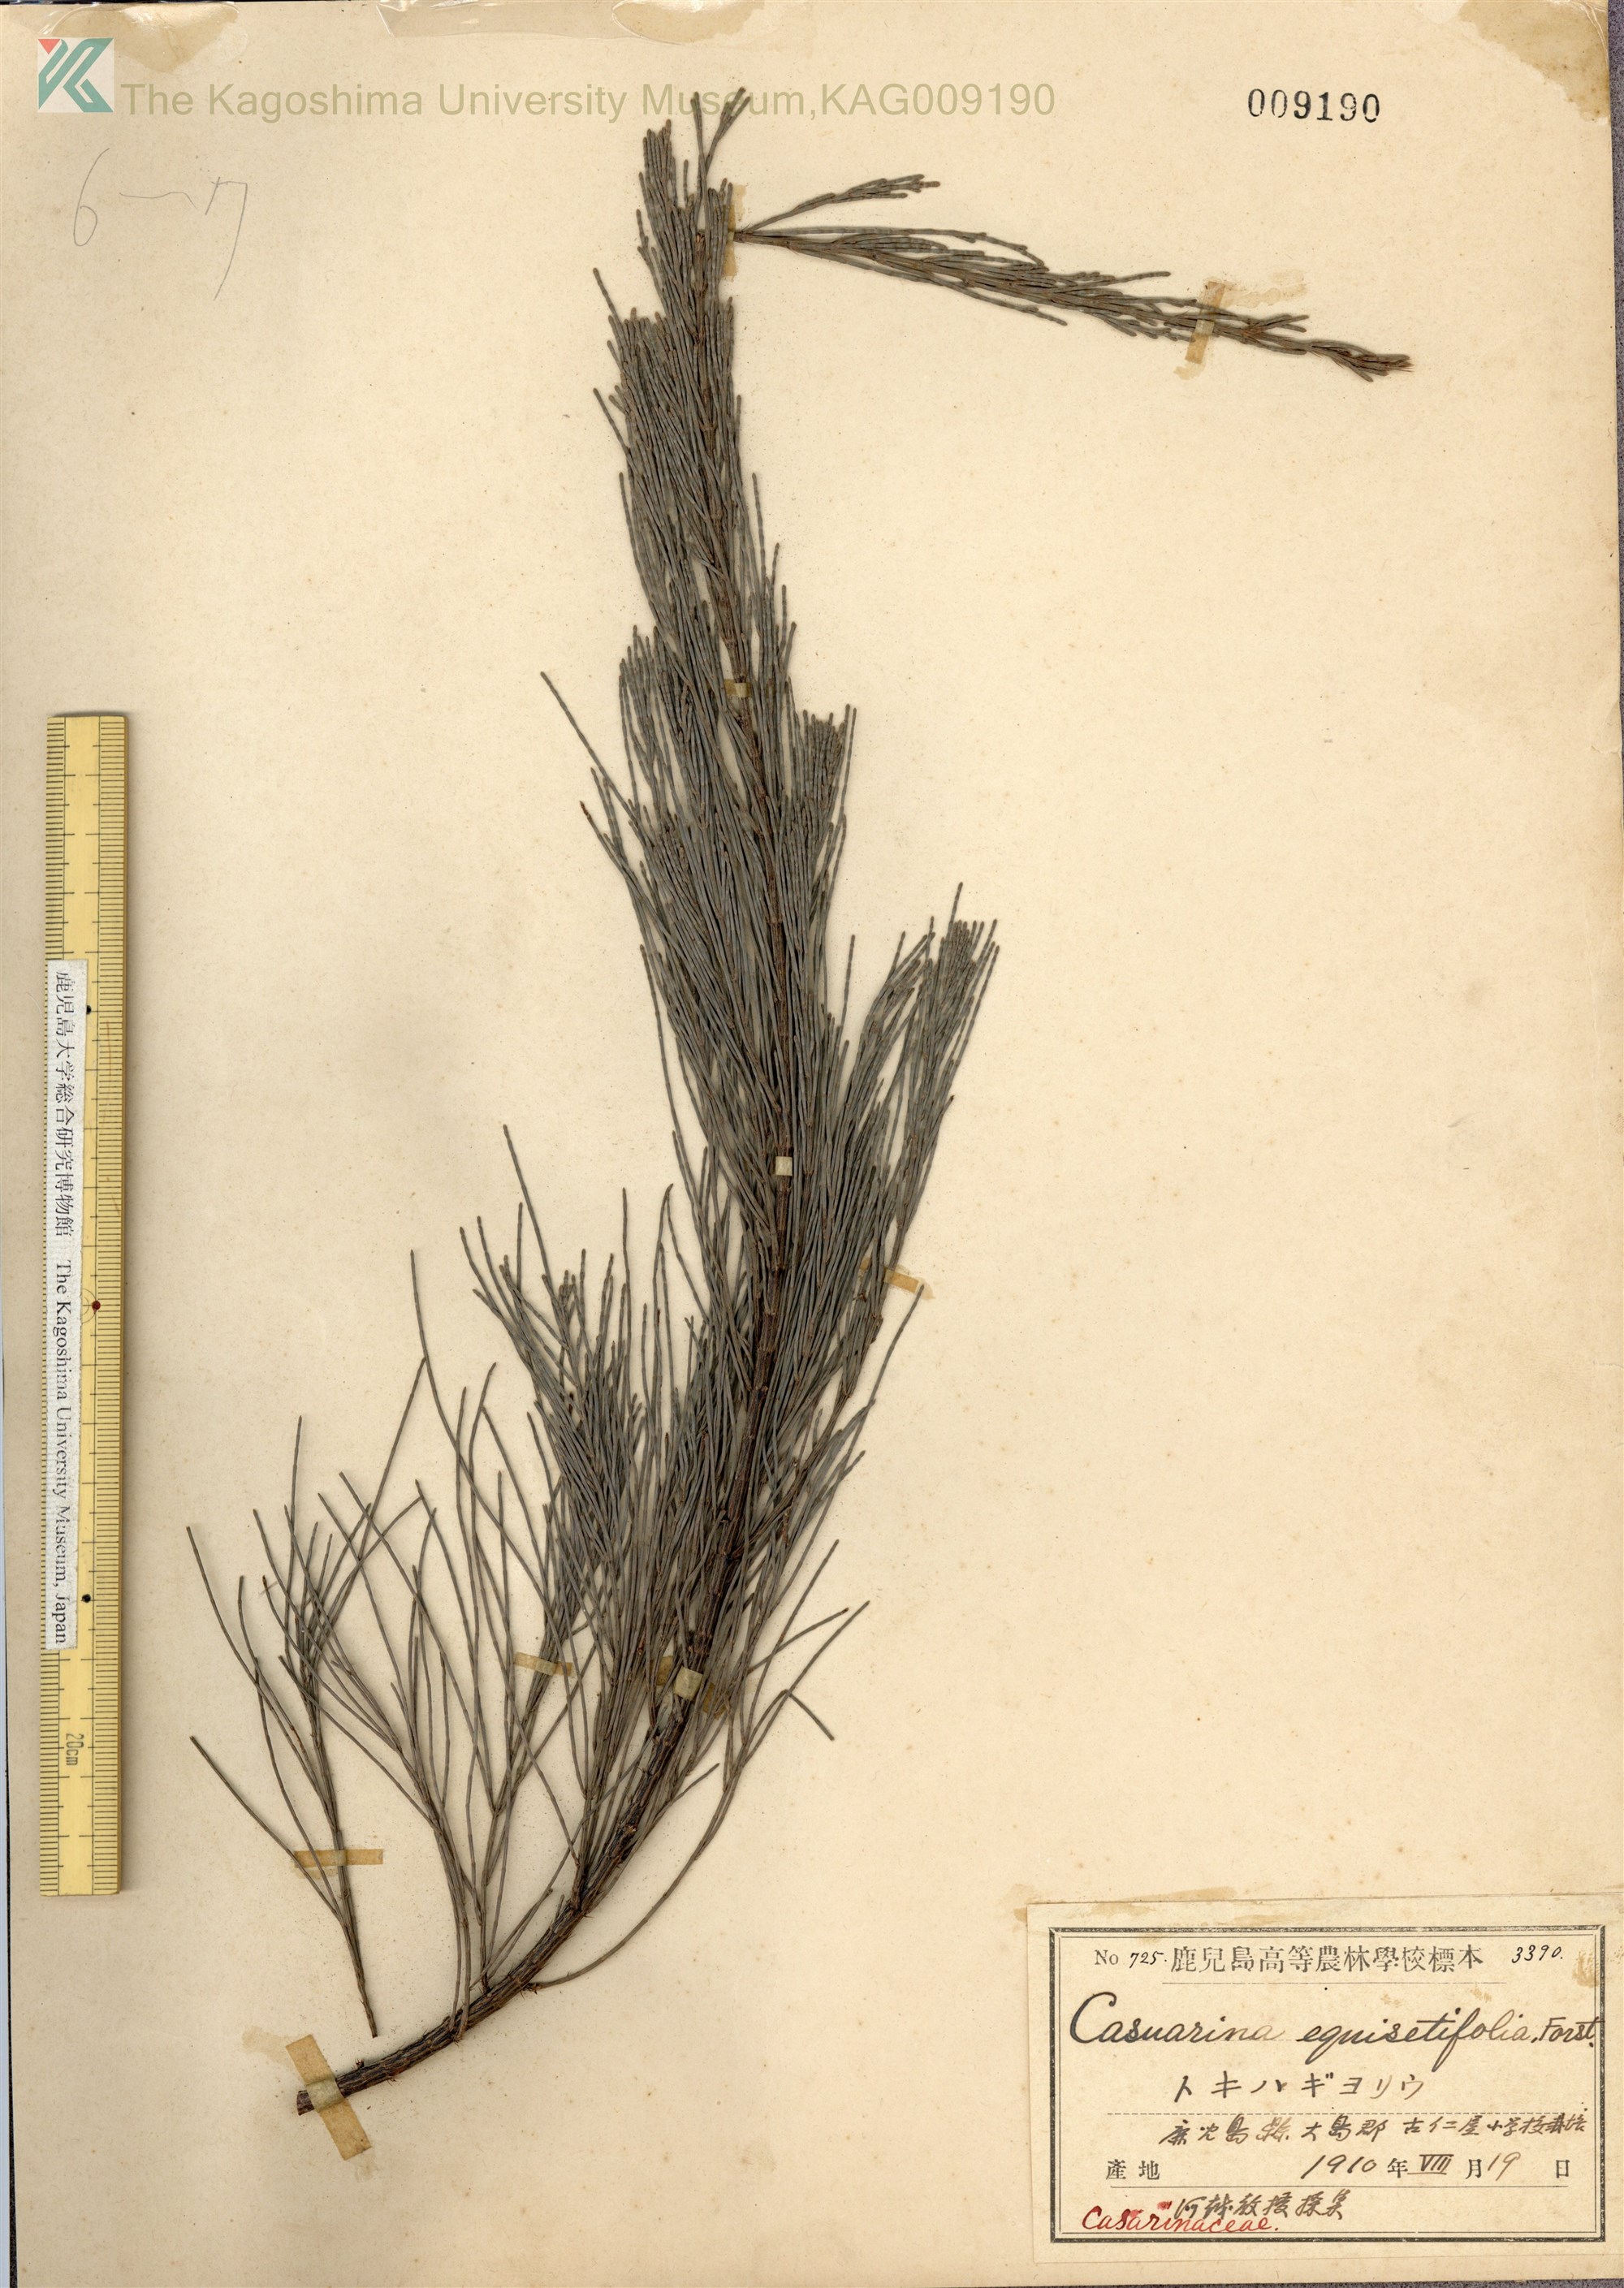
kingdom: Plantae
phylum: Tracheophyta
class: Magnoliopsida
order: Fagales
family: Casuarinaceae
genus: Casuarina
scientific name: Casuarina equisetifolia
